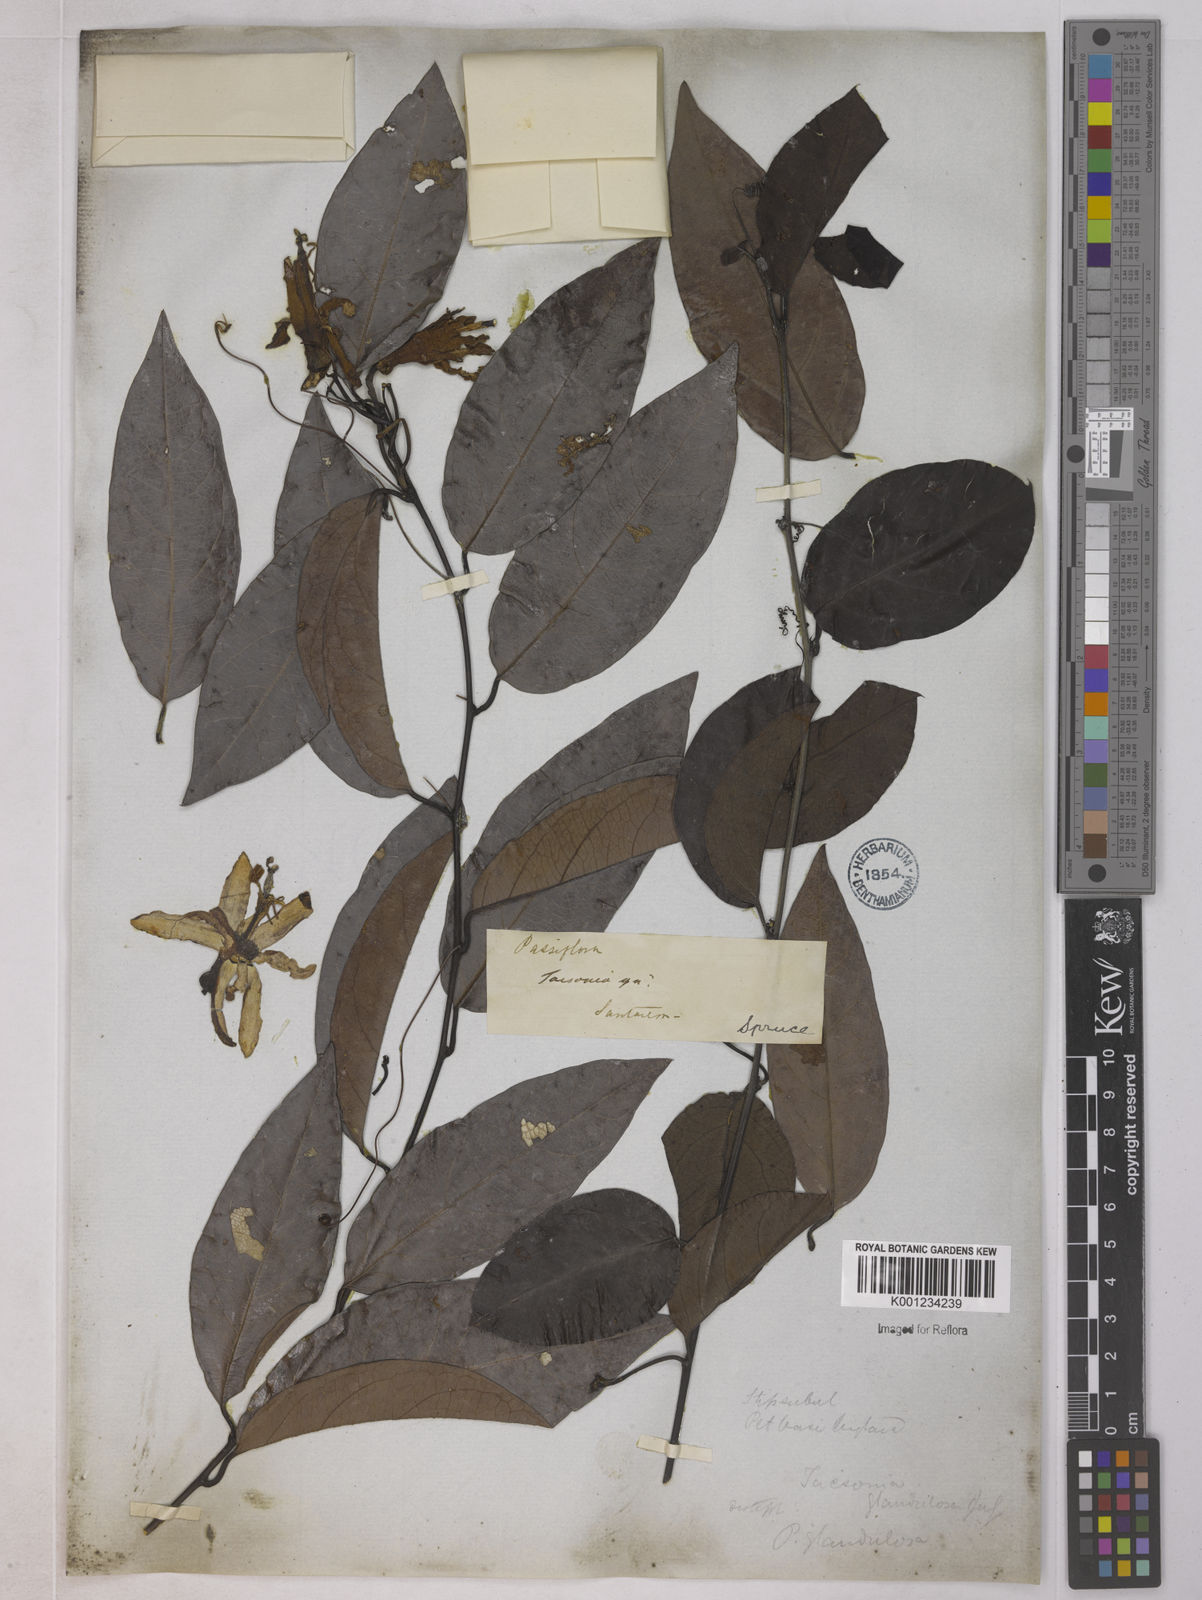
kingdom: Plantae
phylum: Tracheophyta
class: Magnoliopsida
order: Malpighiales
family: Passifloraceae
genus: Passiflora
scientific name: Passiflora glandulosa
